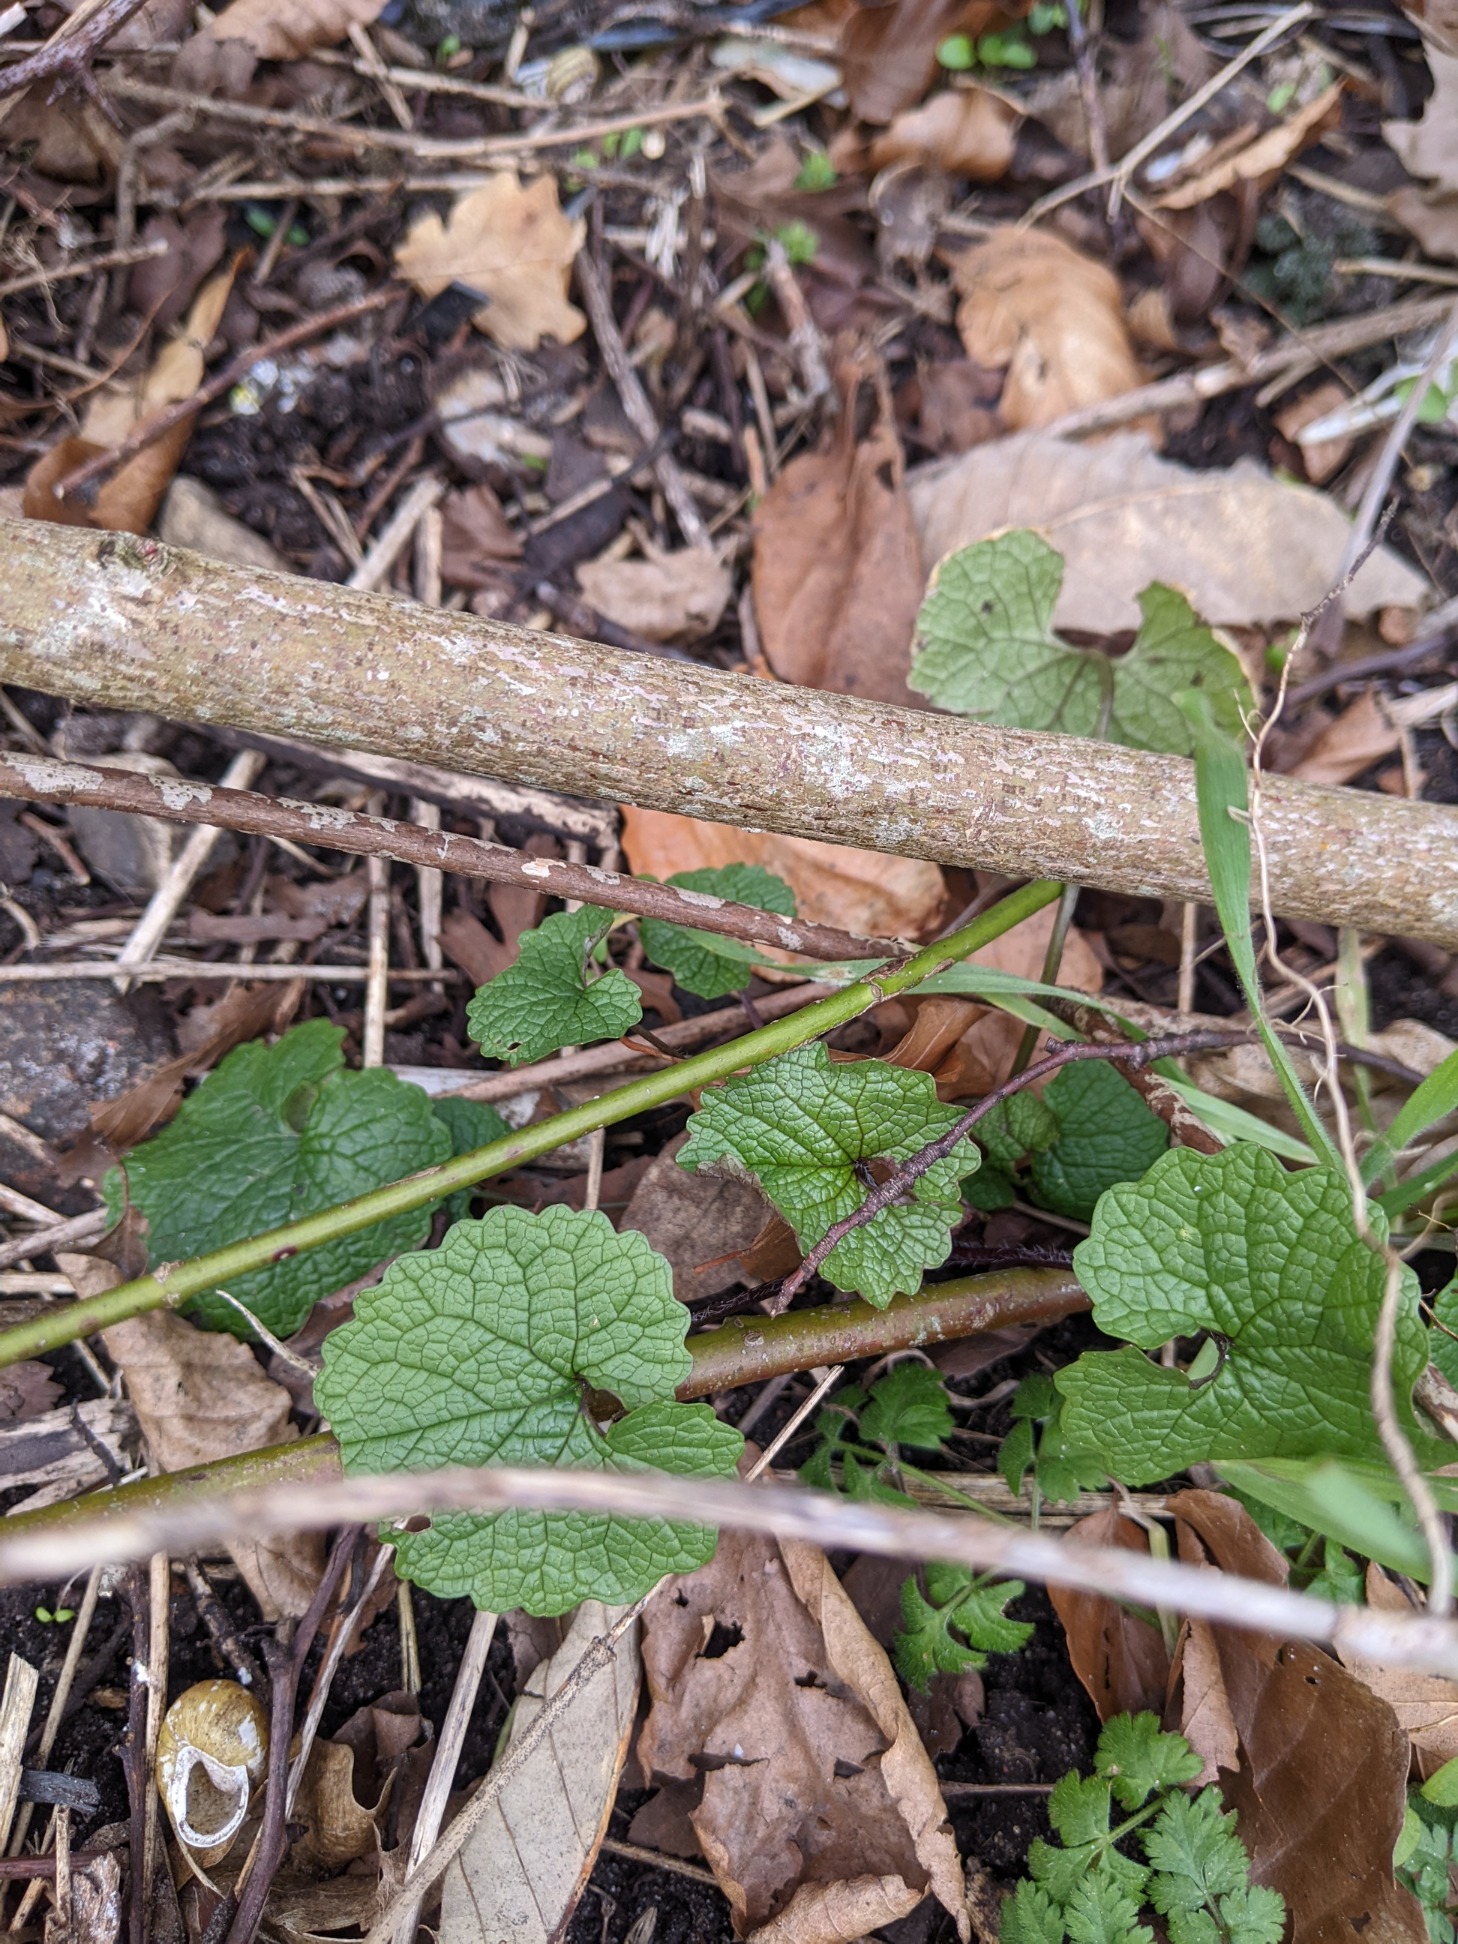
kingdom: Plantae
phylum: Tracheophyta
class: Magnoliopsida
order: Brassicales
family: Brassicaceae
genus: Alliaria
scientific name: Alliaria petiolata
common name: Løgkarse
